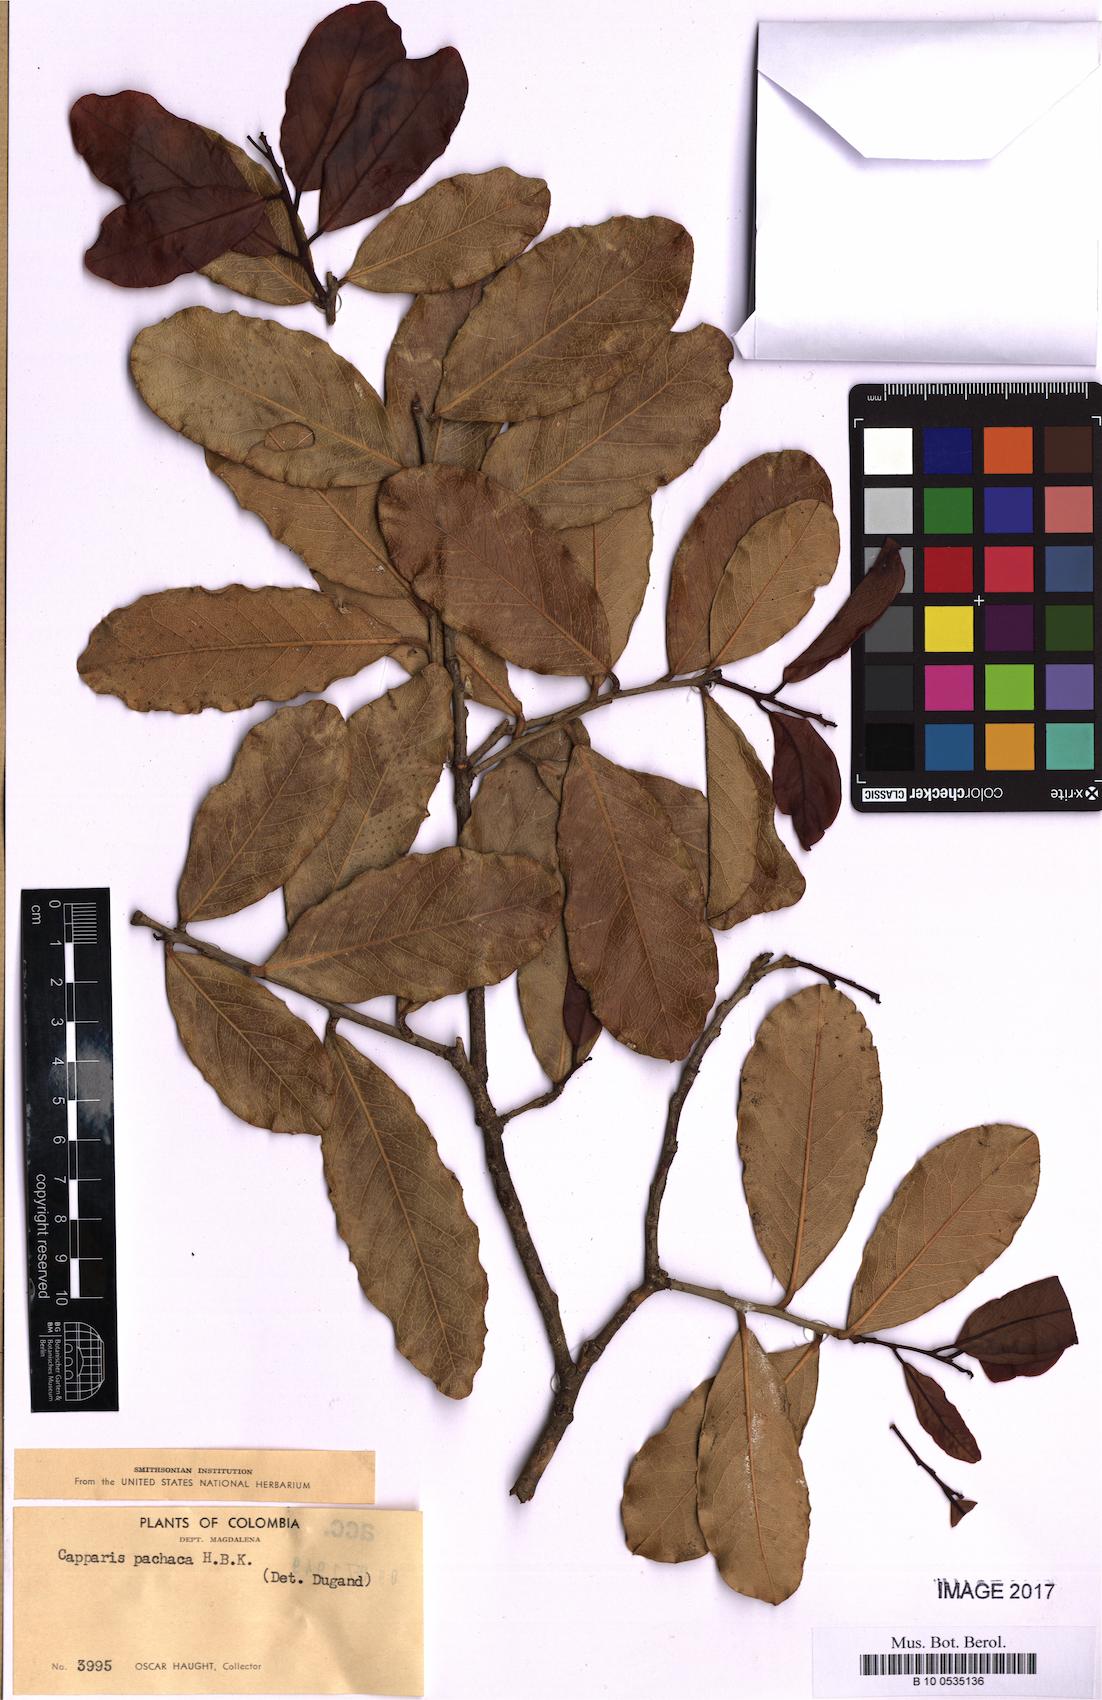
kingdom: Plantae
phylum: Tracheophyta
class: Magnoliopsida
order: Brassicales
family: Capparaceae
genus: Neocapparis
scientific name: Neocapparis pachaca
